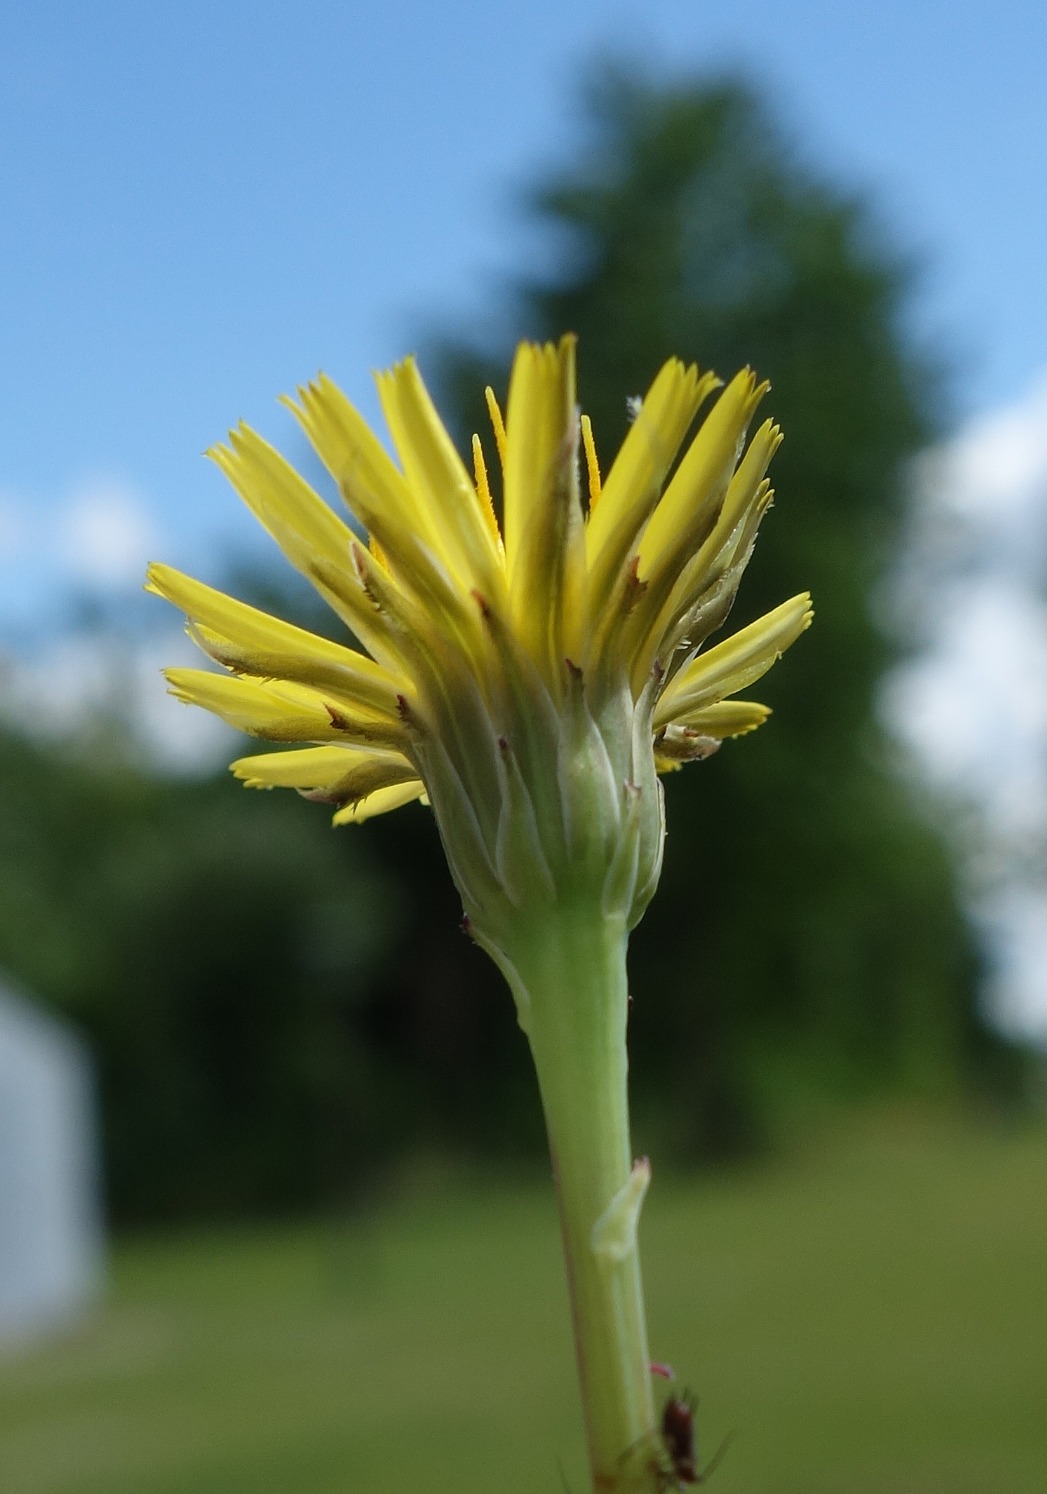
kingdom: Plantae
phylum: Tracheophyta
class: Magnoliopsida
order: Asterales
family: Asteraceae
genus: Hypochaeris
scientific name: Hypochaeris radicata
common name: Almindelig kongepen
